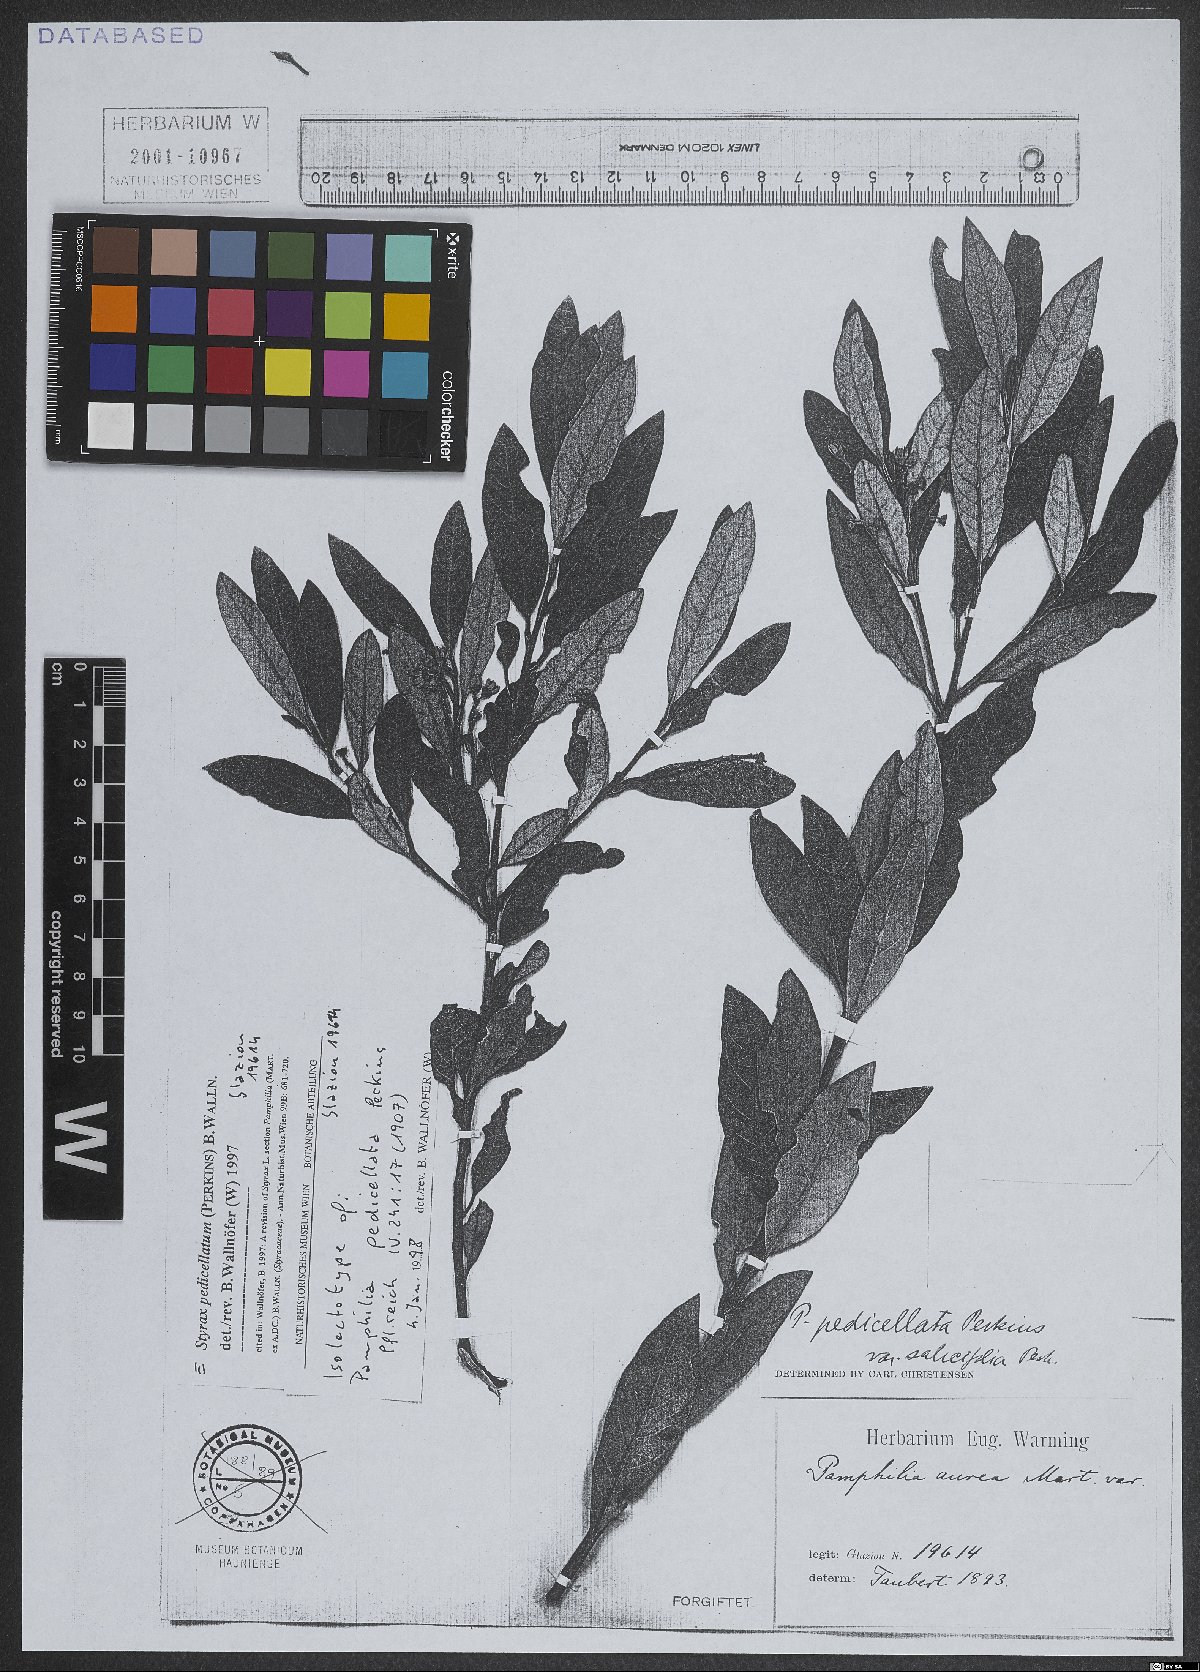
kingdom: Plantae
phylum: Tracheophyta
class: Magnoliopsida
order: Ericales
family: Styracaceae
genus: Styrax
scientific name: Styrax pedicellatus
